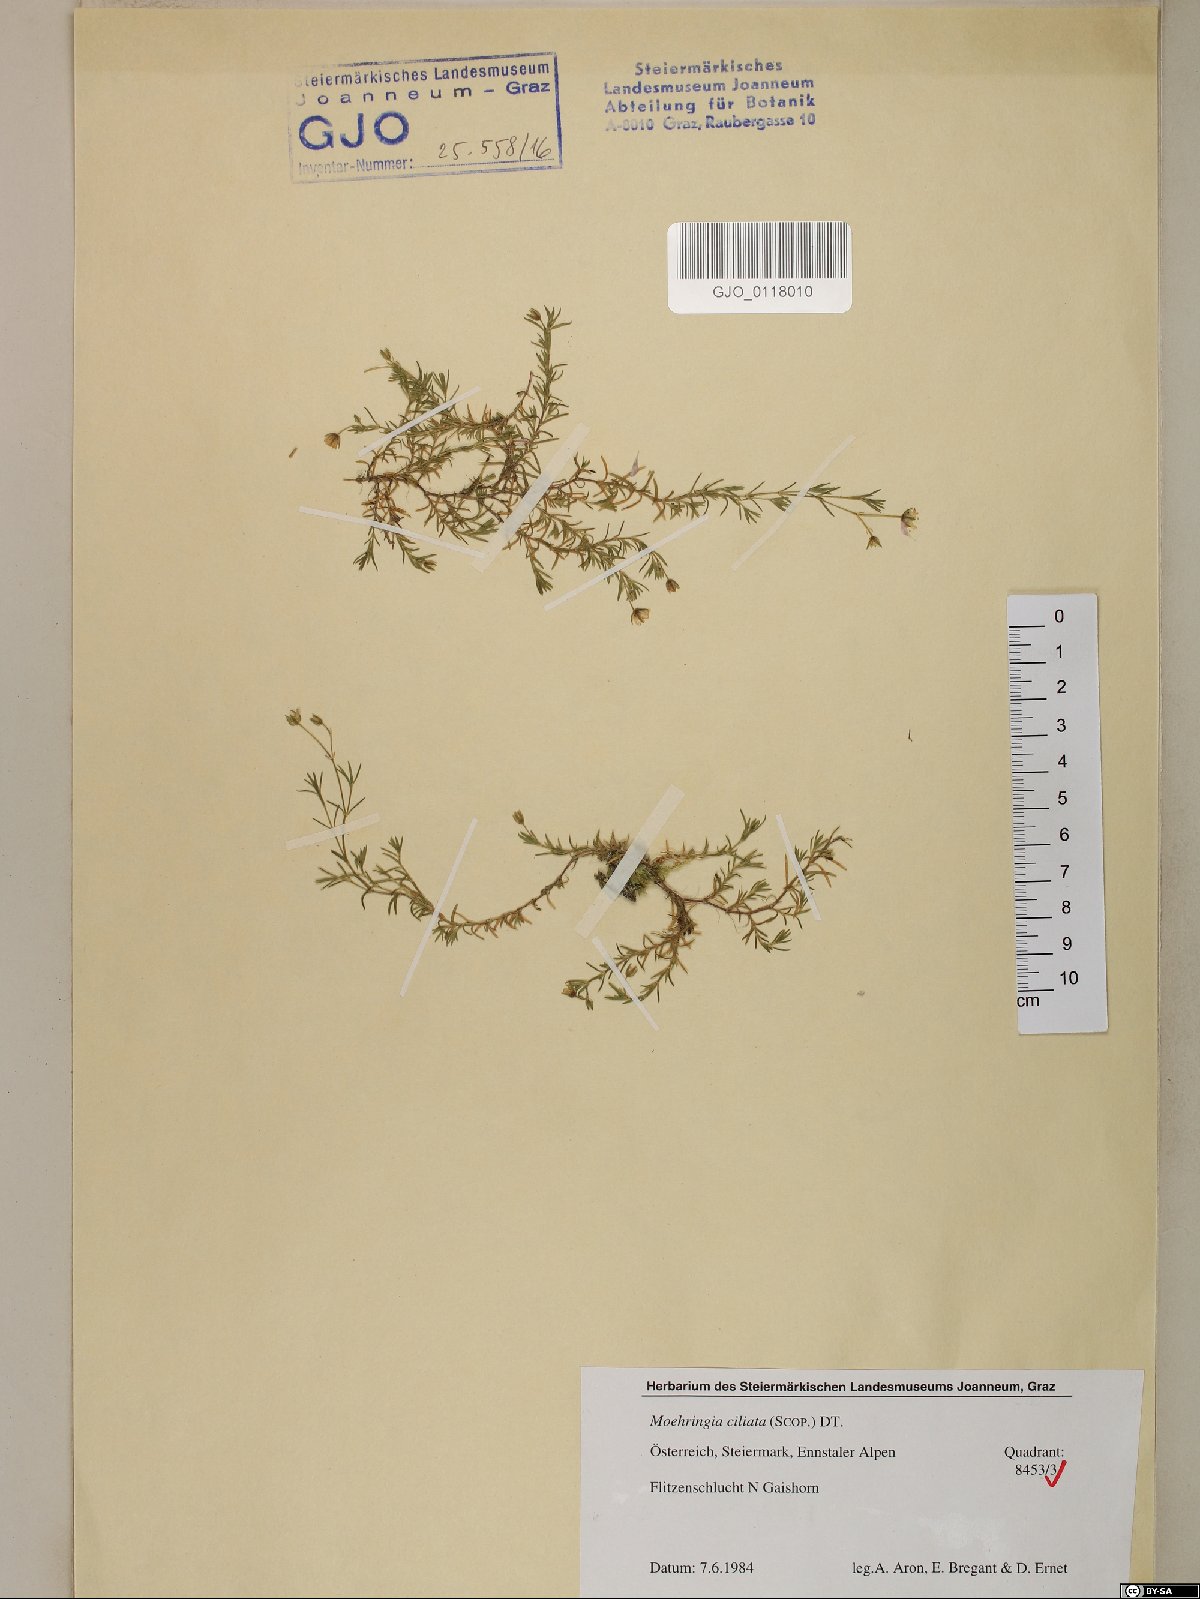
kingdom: Plantae
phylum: Tracheophyta
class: Magnoliopsida
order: Caryophyllales
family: Caryophyllaceae
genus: Moehringia
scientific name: Moehringia ciliata
